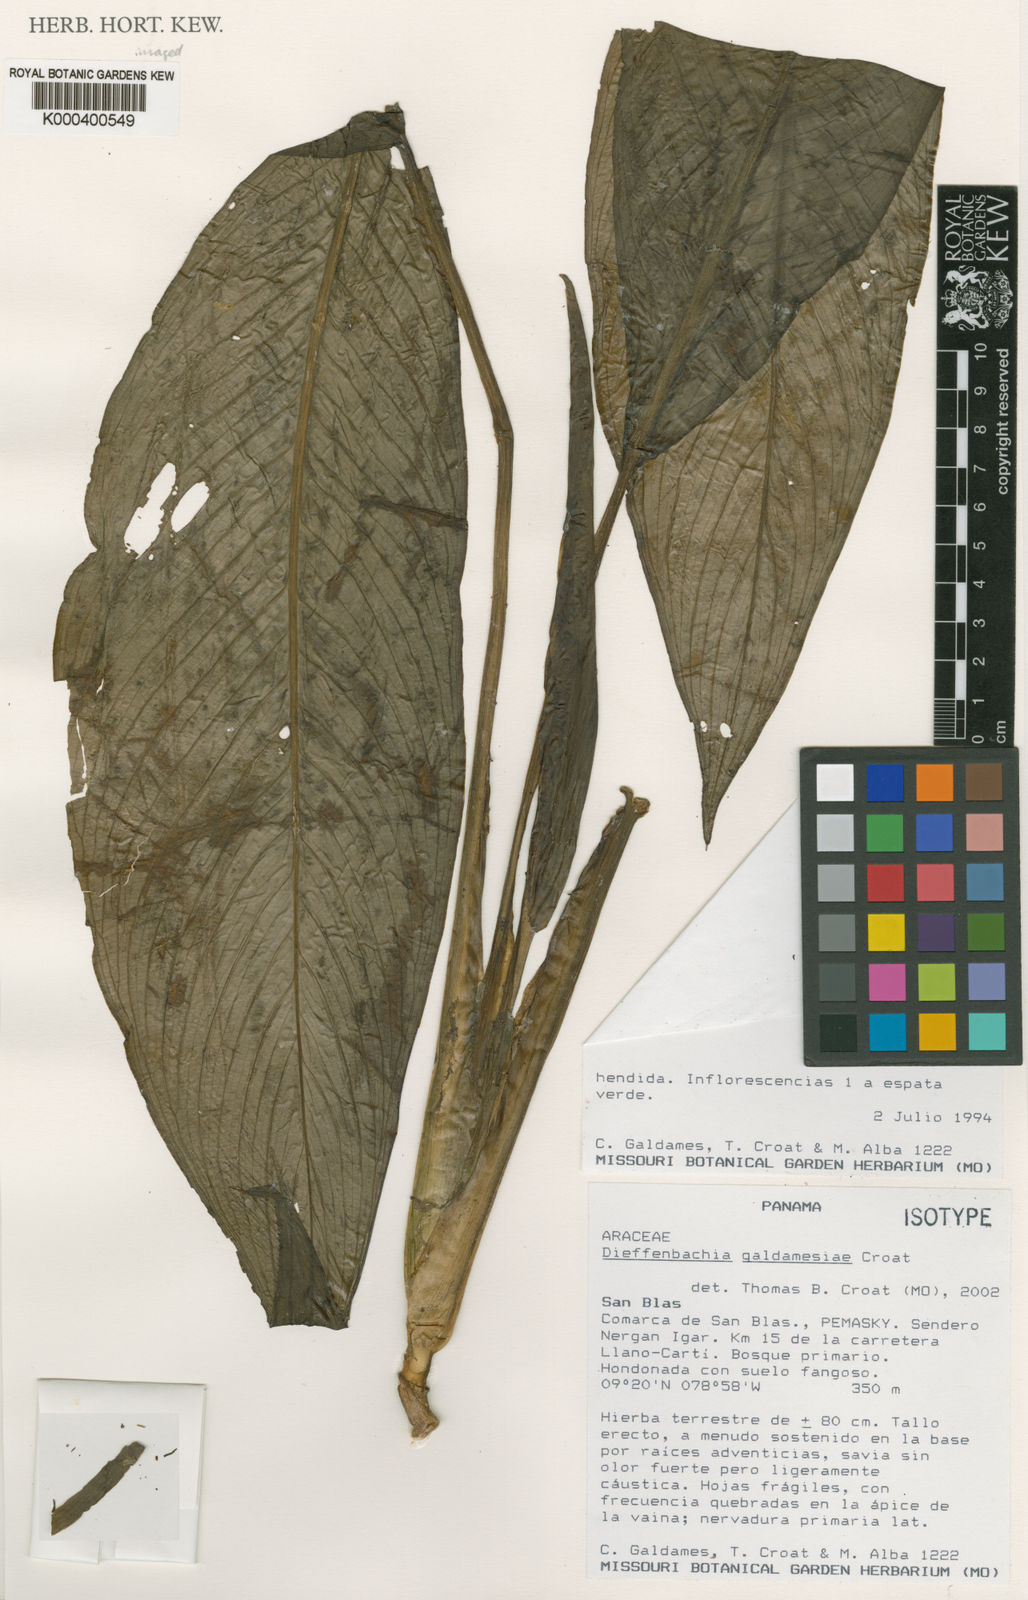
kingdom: Plantae
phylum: Tracheophyta
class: Liliopsida
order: Alismatales
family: Araceae
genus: Dieffenbachia
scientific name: Dieffenbachia galdamesiae
